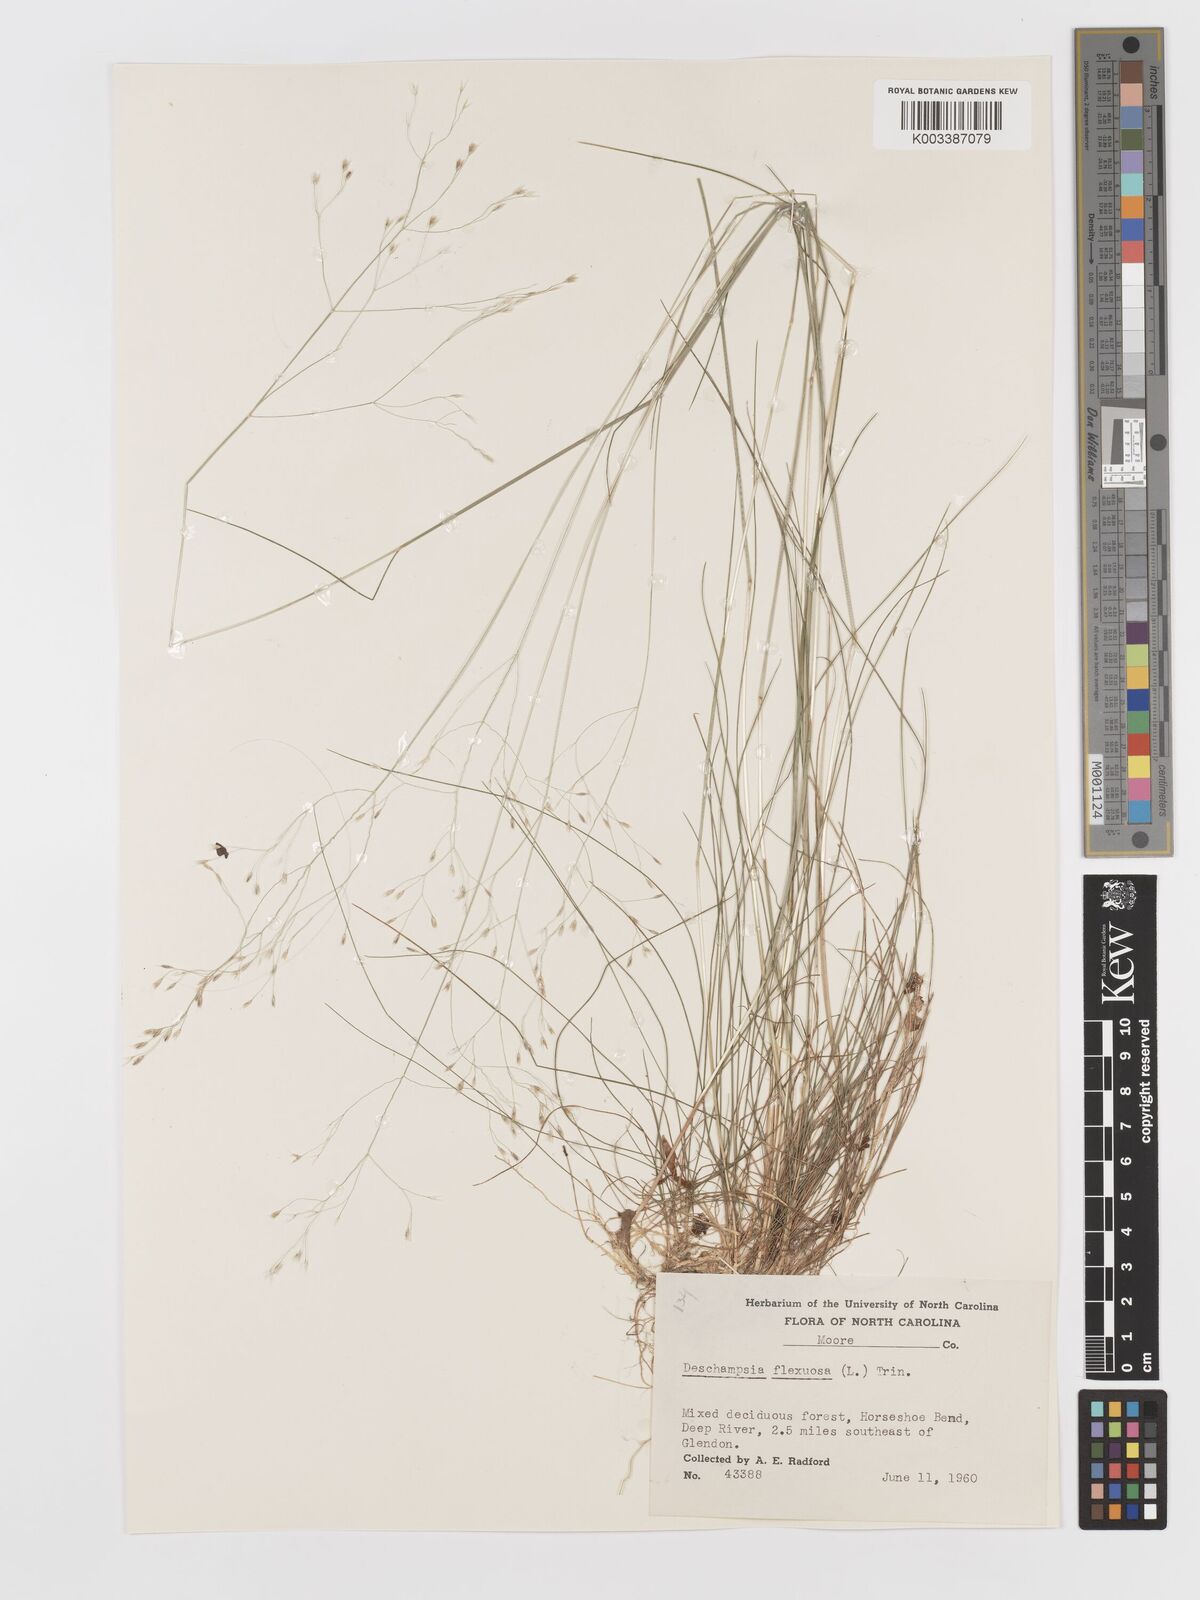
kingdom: Plantae
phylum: Tracheophyta
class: Liliopsida
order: Poales
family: Poaceae
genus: Avenella
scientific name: Avenella flexuosa
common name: Wavy hairgrass
